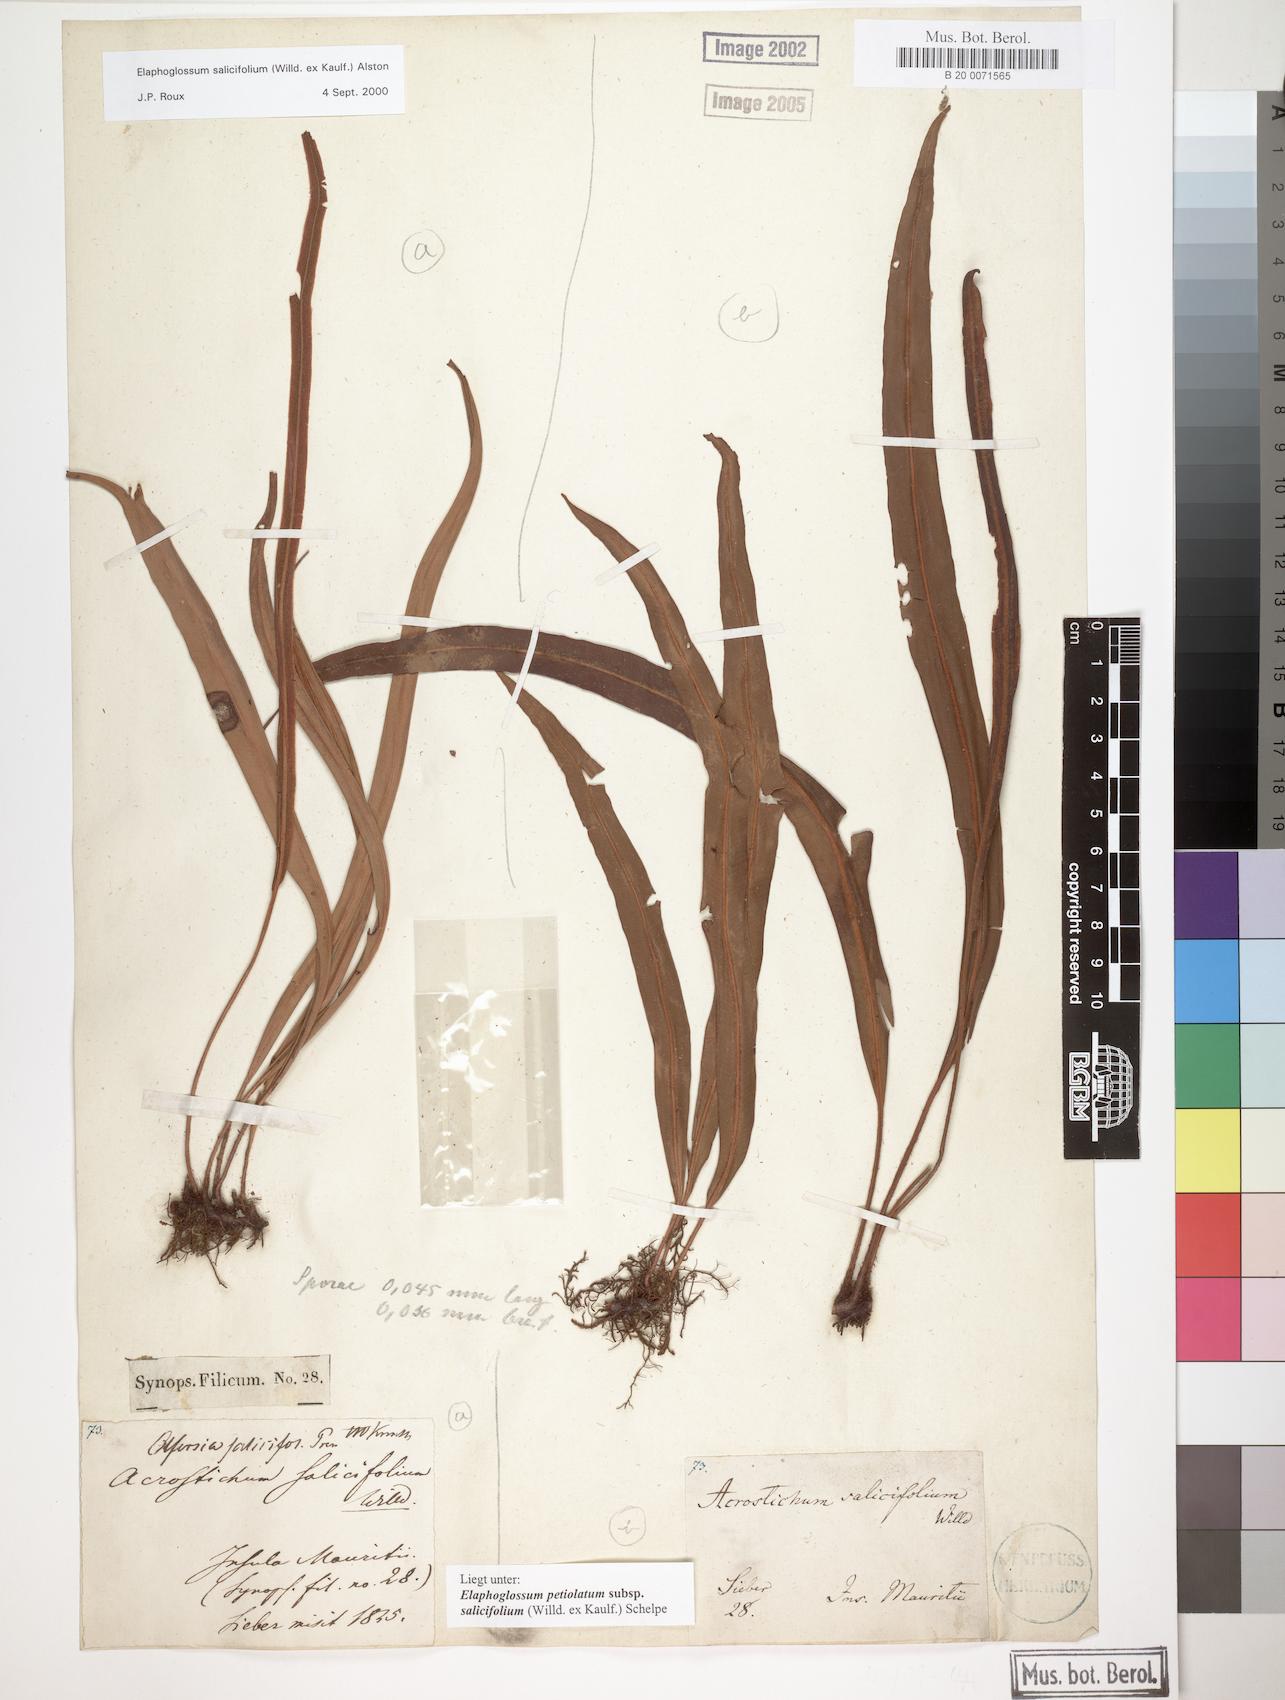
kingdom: Plantae
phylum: Tracheophyta
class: Polypodiopsida
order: Polypodiales
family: Dryopteridaceae
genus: Elaphoglossum
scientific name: Elaphoglossum lancifolium
